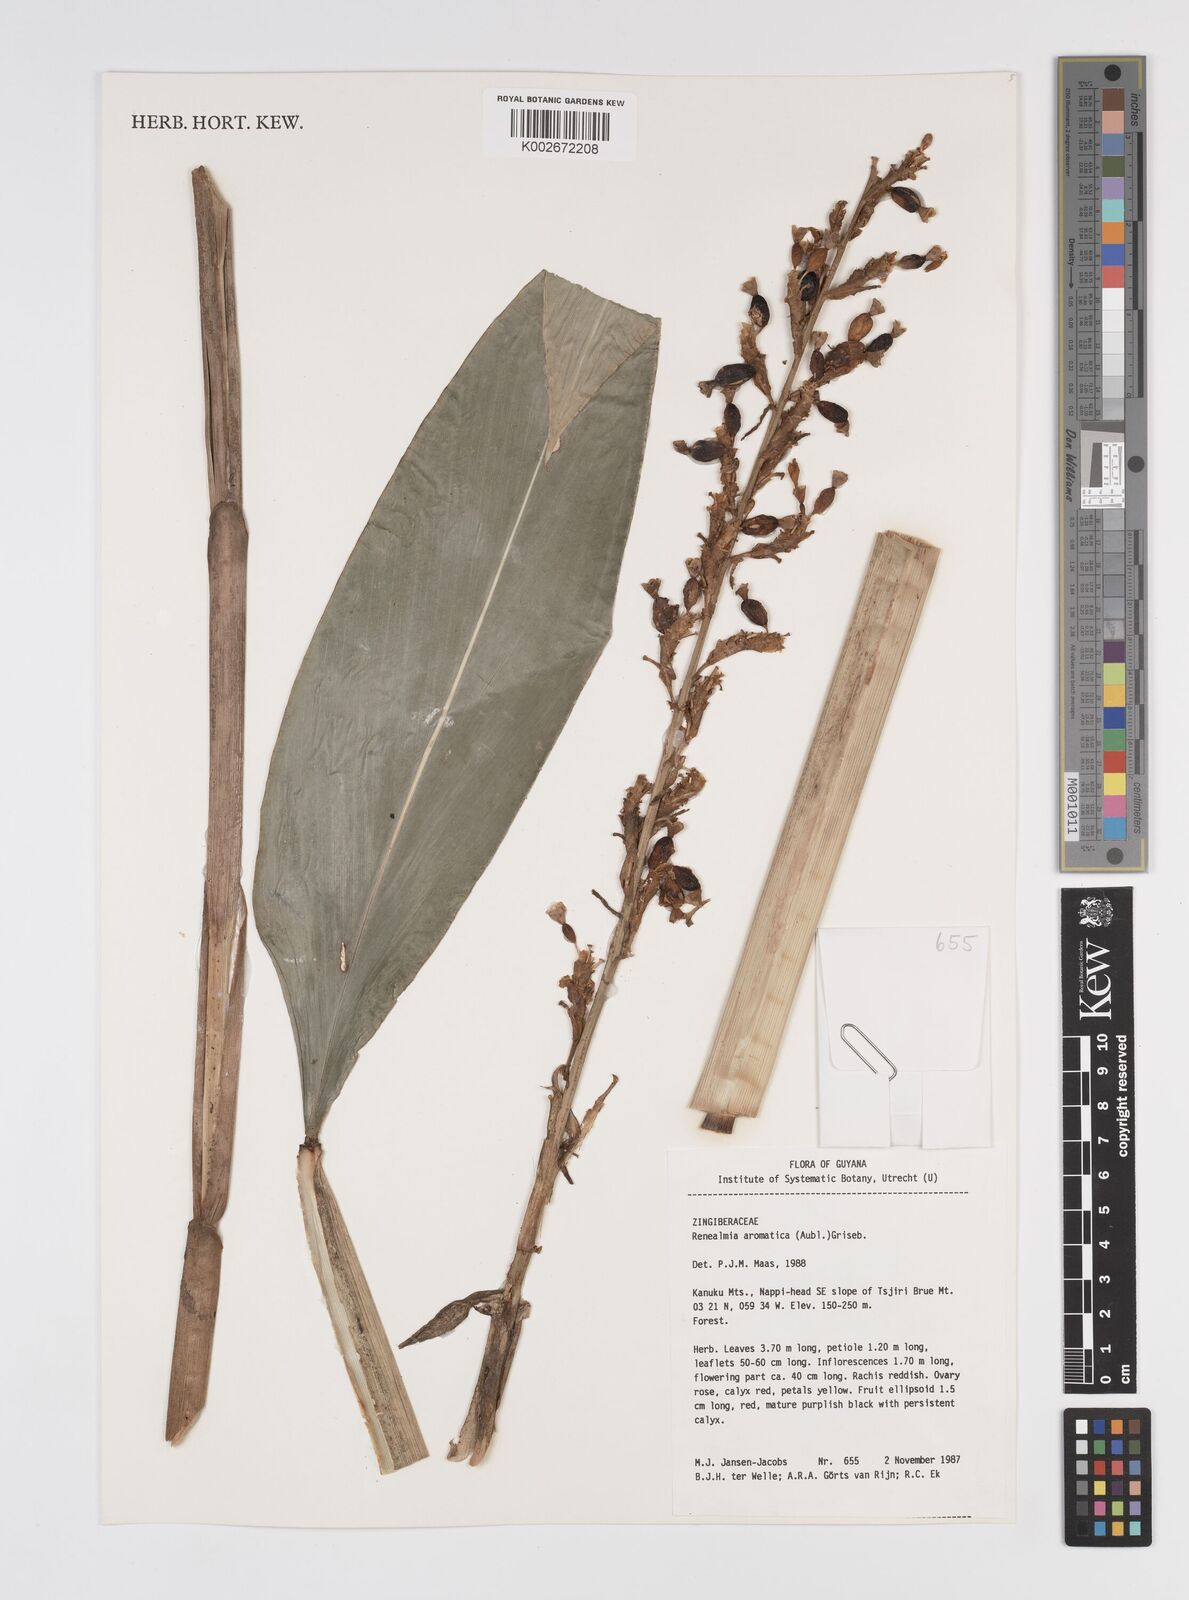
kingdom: Plantae
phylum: Tracheophyta
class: Liliopsida
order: Zingiberales
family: Zingiberaceae
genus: Renealmia
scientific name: Renealmia aromatica
